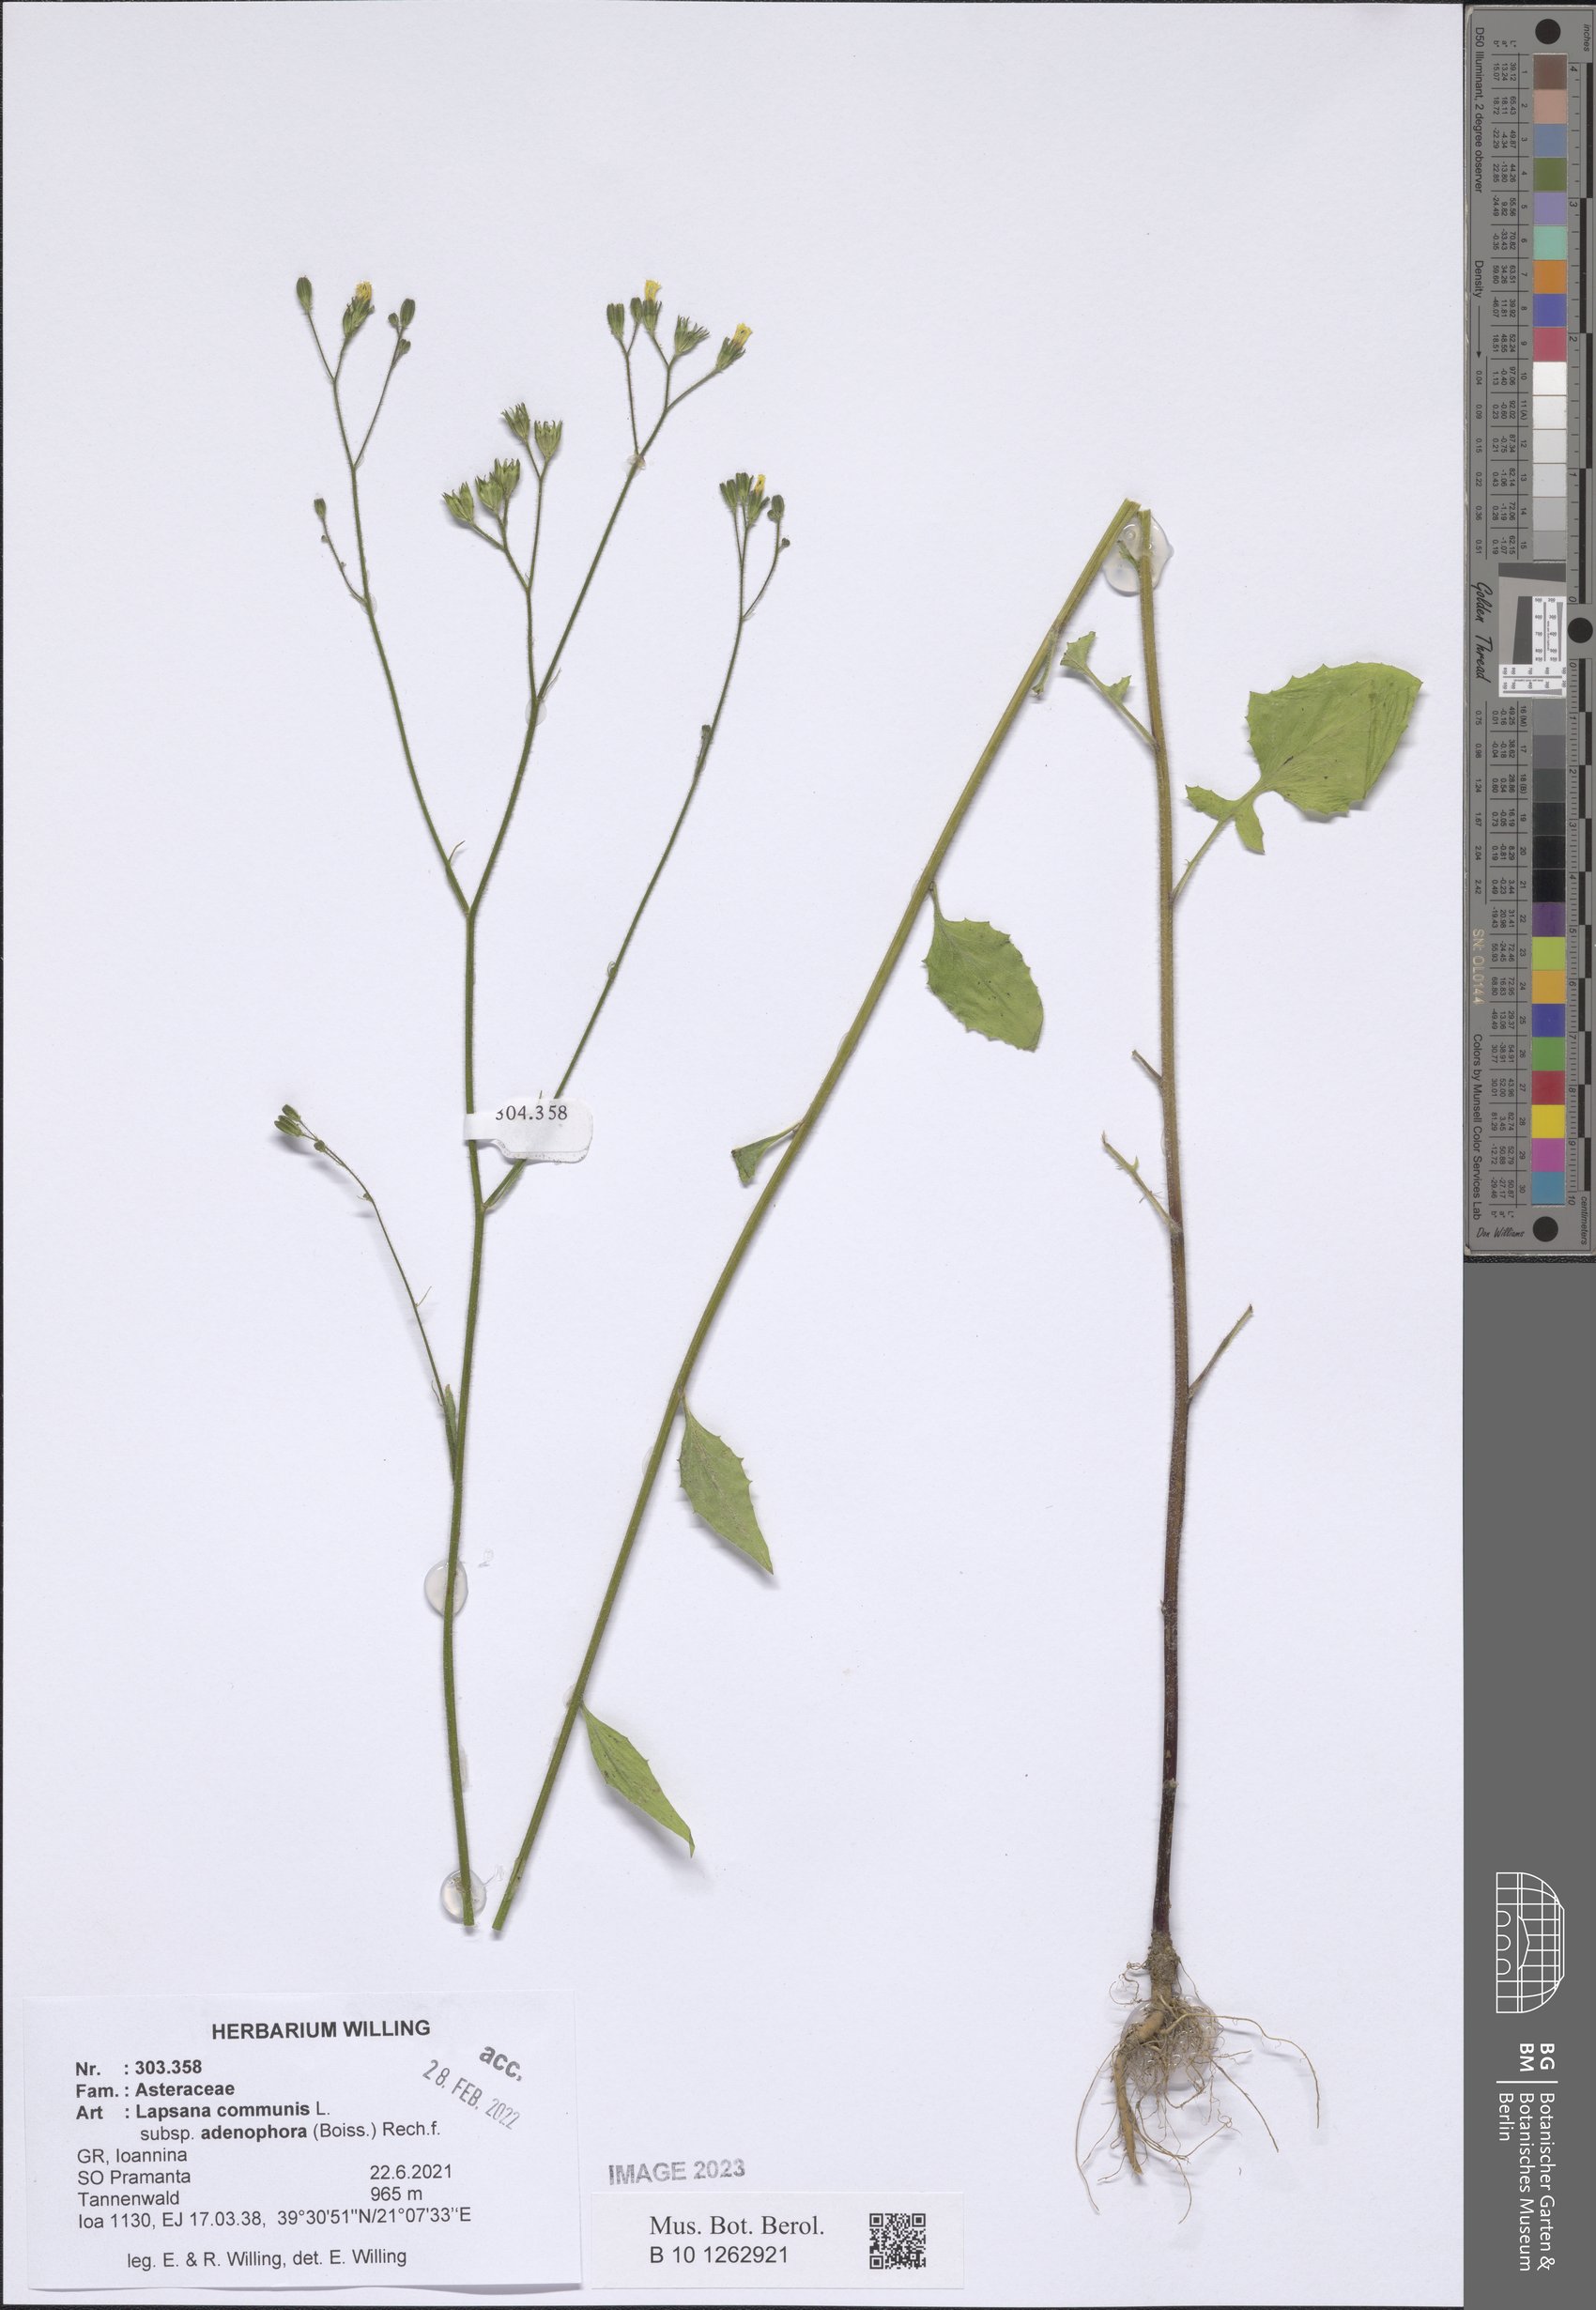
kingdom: Plantae
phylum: Tracheophyta
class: Magnoliopsida
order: Asterales
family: Asteraceae
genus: Lapsana
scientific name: Lapsana communis
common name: Nipplewort
